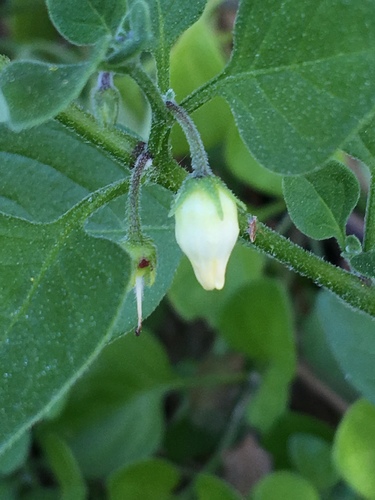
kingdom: Plantae
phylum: Tracheophyta
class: Magnoliopsida
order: Solanales
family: Solanaceae
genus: Salpichroa
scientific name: Salpichroa origanifolia
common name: Lily-of-the-valley-vine
